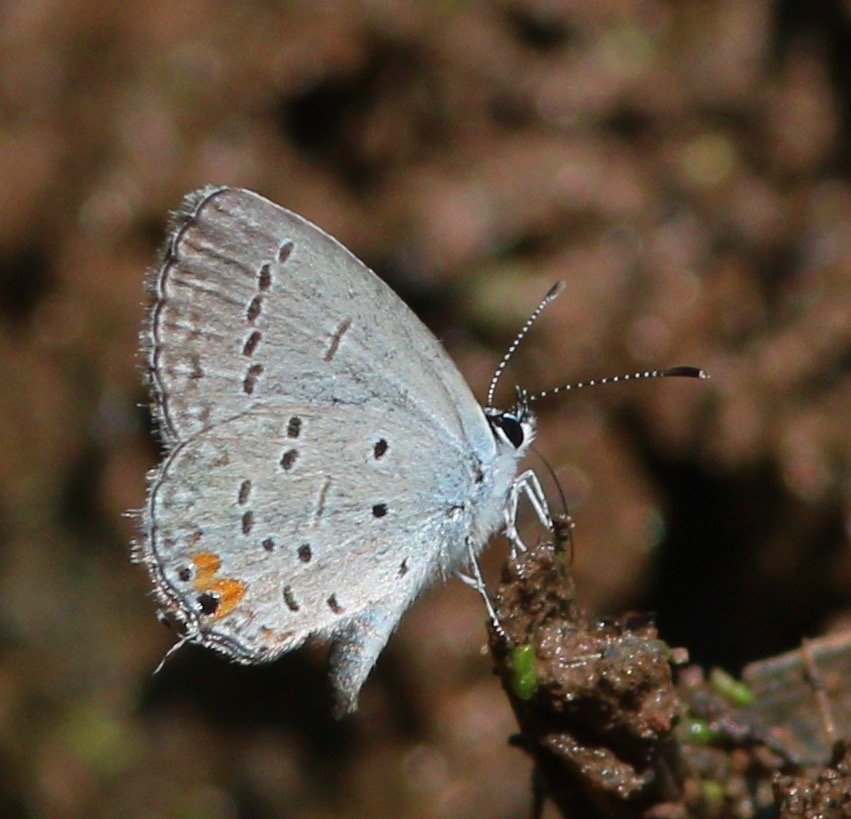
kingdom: Animalia
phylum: Arthropoda
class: Insecta
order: Lepidoptera
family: Lycaenidae
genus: Elkalyce
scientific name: Elkalyce comyntas
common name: Eastern Tailed-Blue
